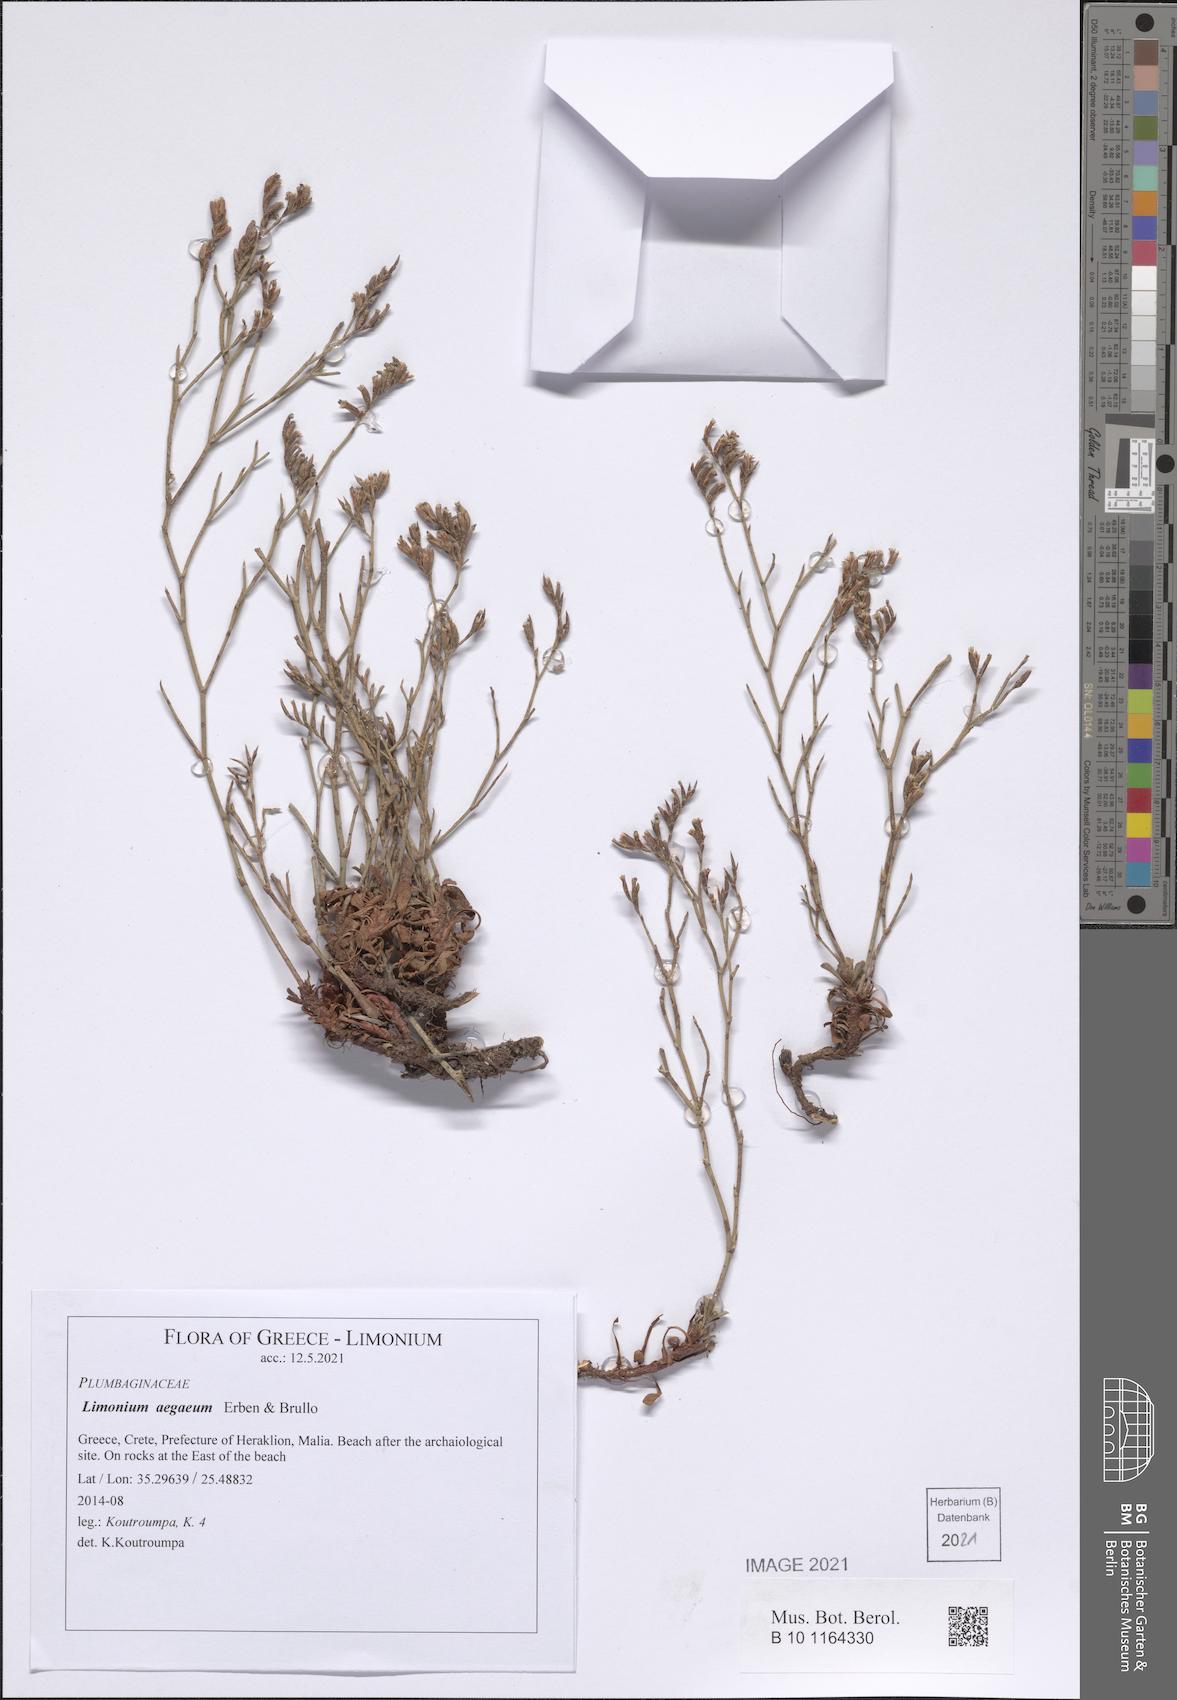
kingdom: Plantae
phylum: Tracheophyta
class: Magnoliopsida
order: Caryophyllales
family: Plumbaginaceae
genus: Limonium
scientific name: Limonium aegaeum
